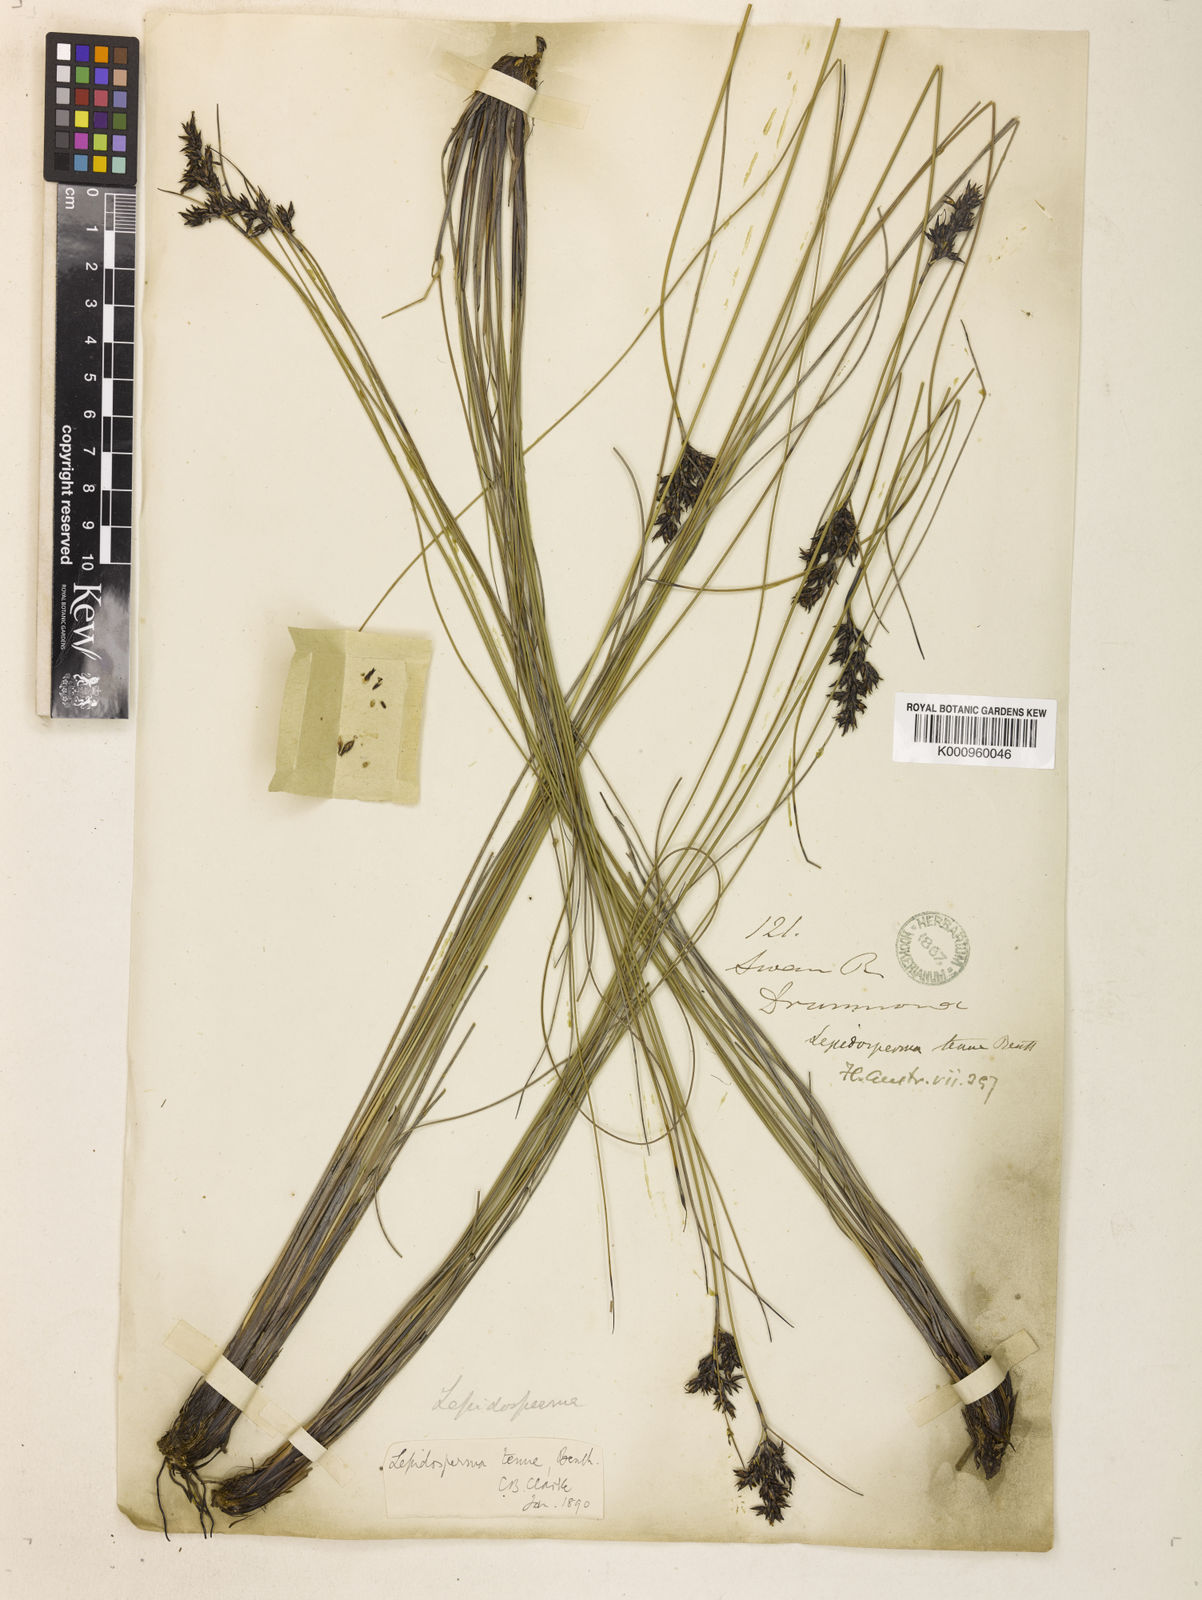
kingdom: Plantae
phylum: Tracheophyta
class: Liliopsida
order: Poales
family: Cyperaceae
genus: Lepidosperma
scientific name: Lepidosperma tenue
